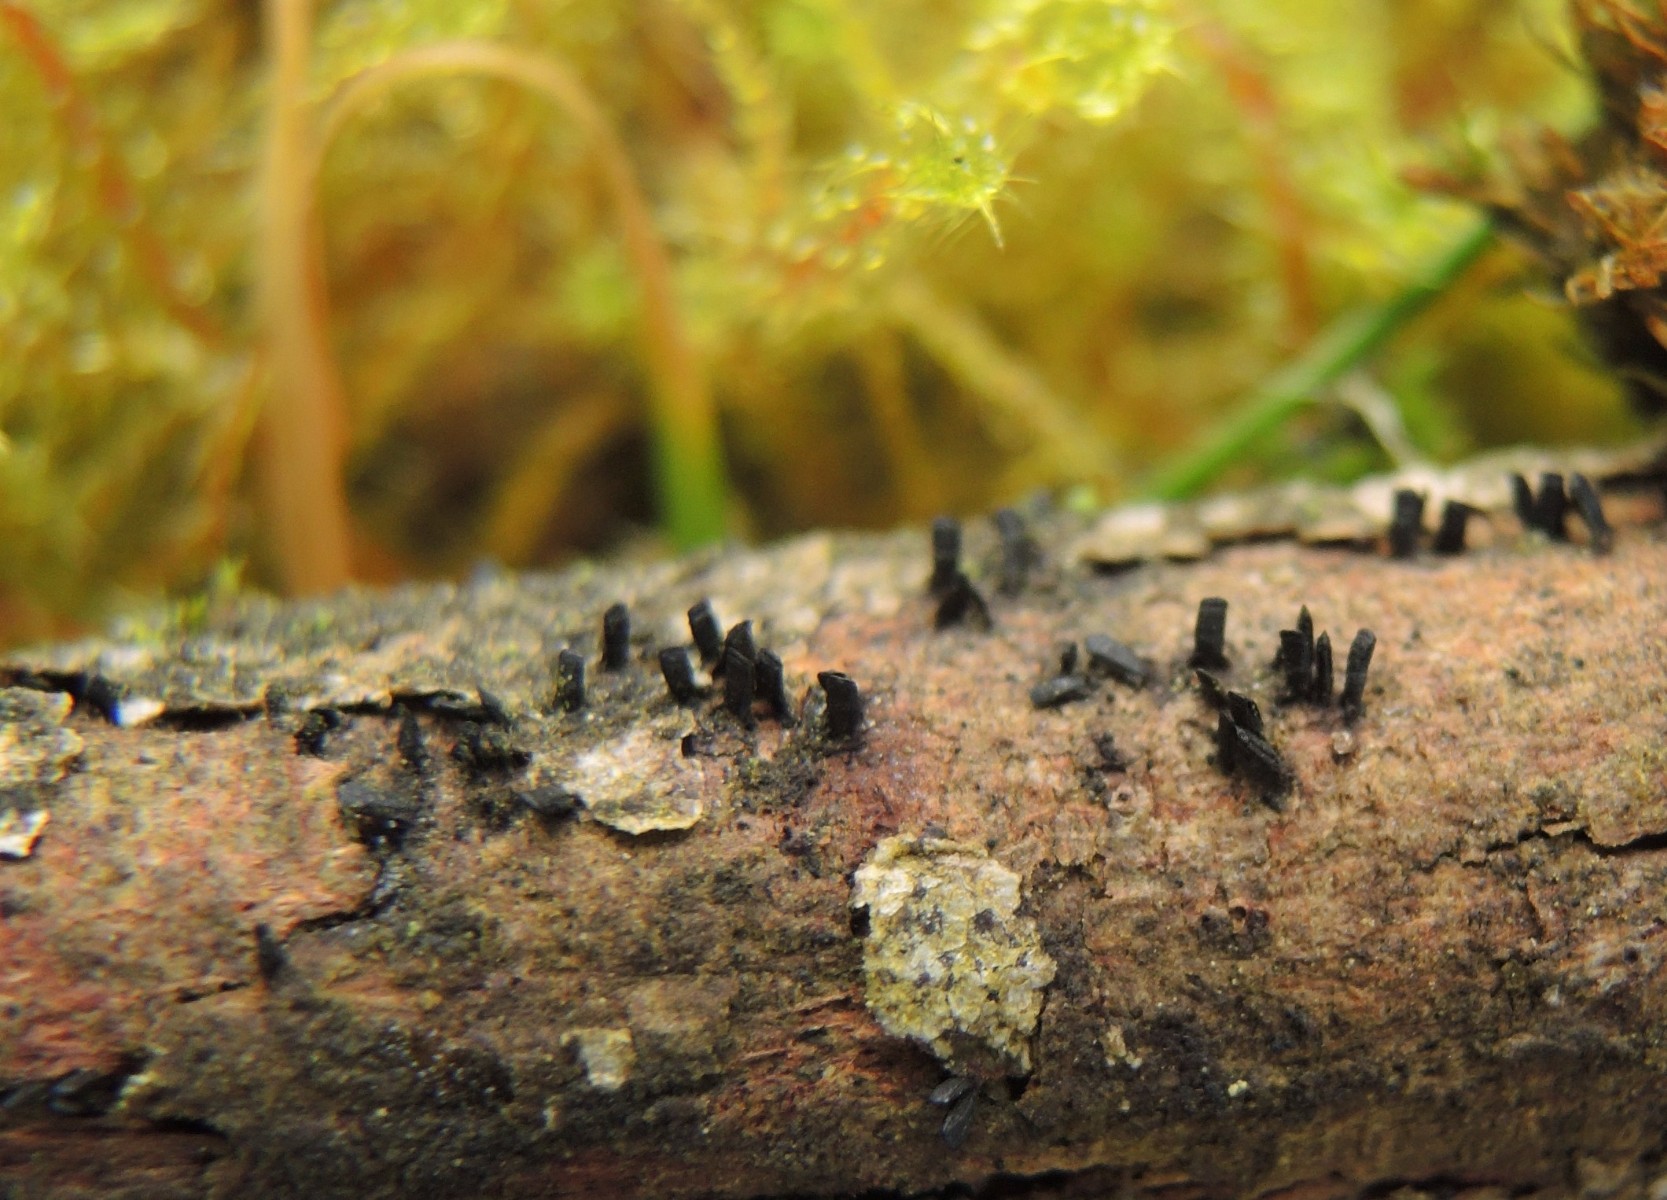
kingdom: Fungi
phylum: Ascomycota
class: Eurotiomycetes
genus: Glyphium
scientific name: Glyphium elatum
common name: kuløkse
